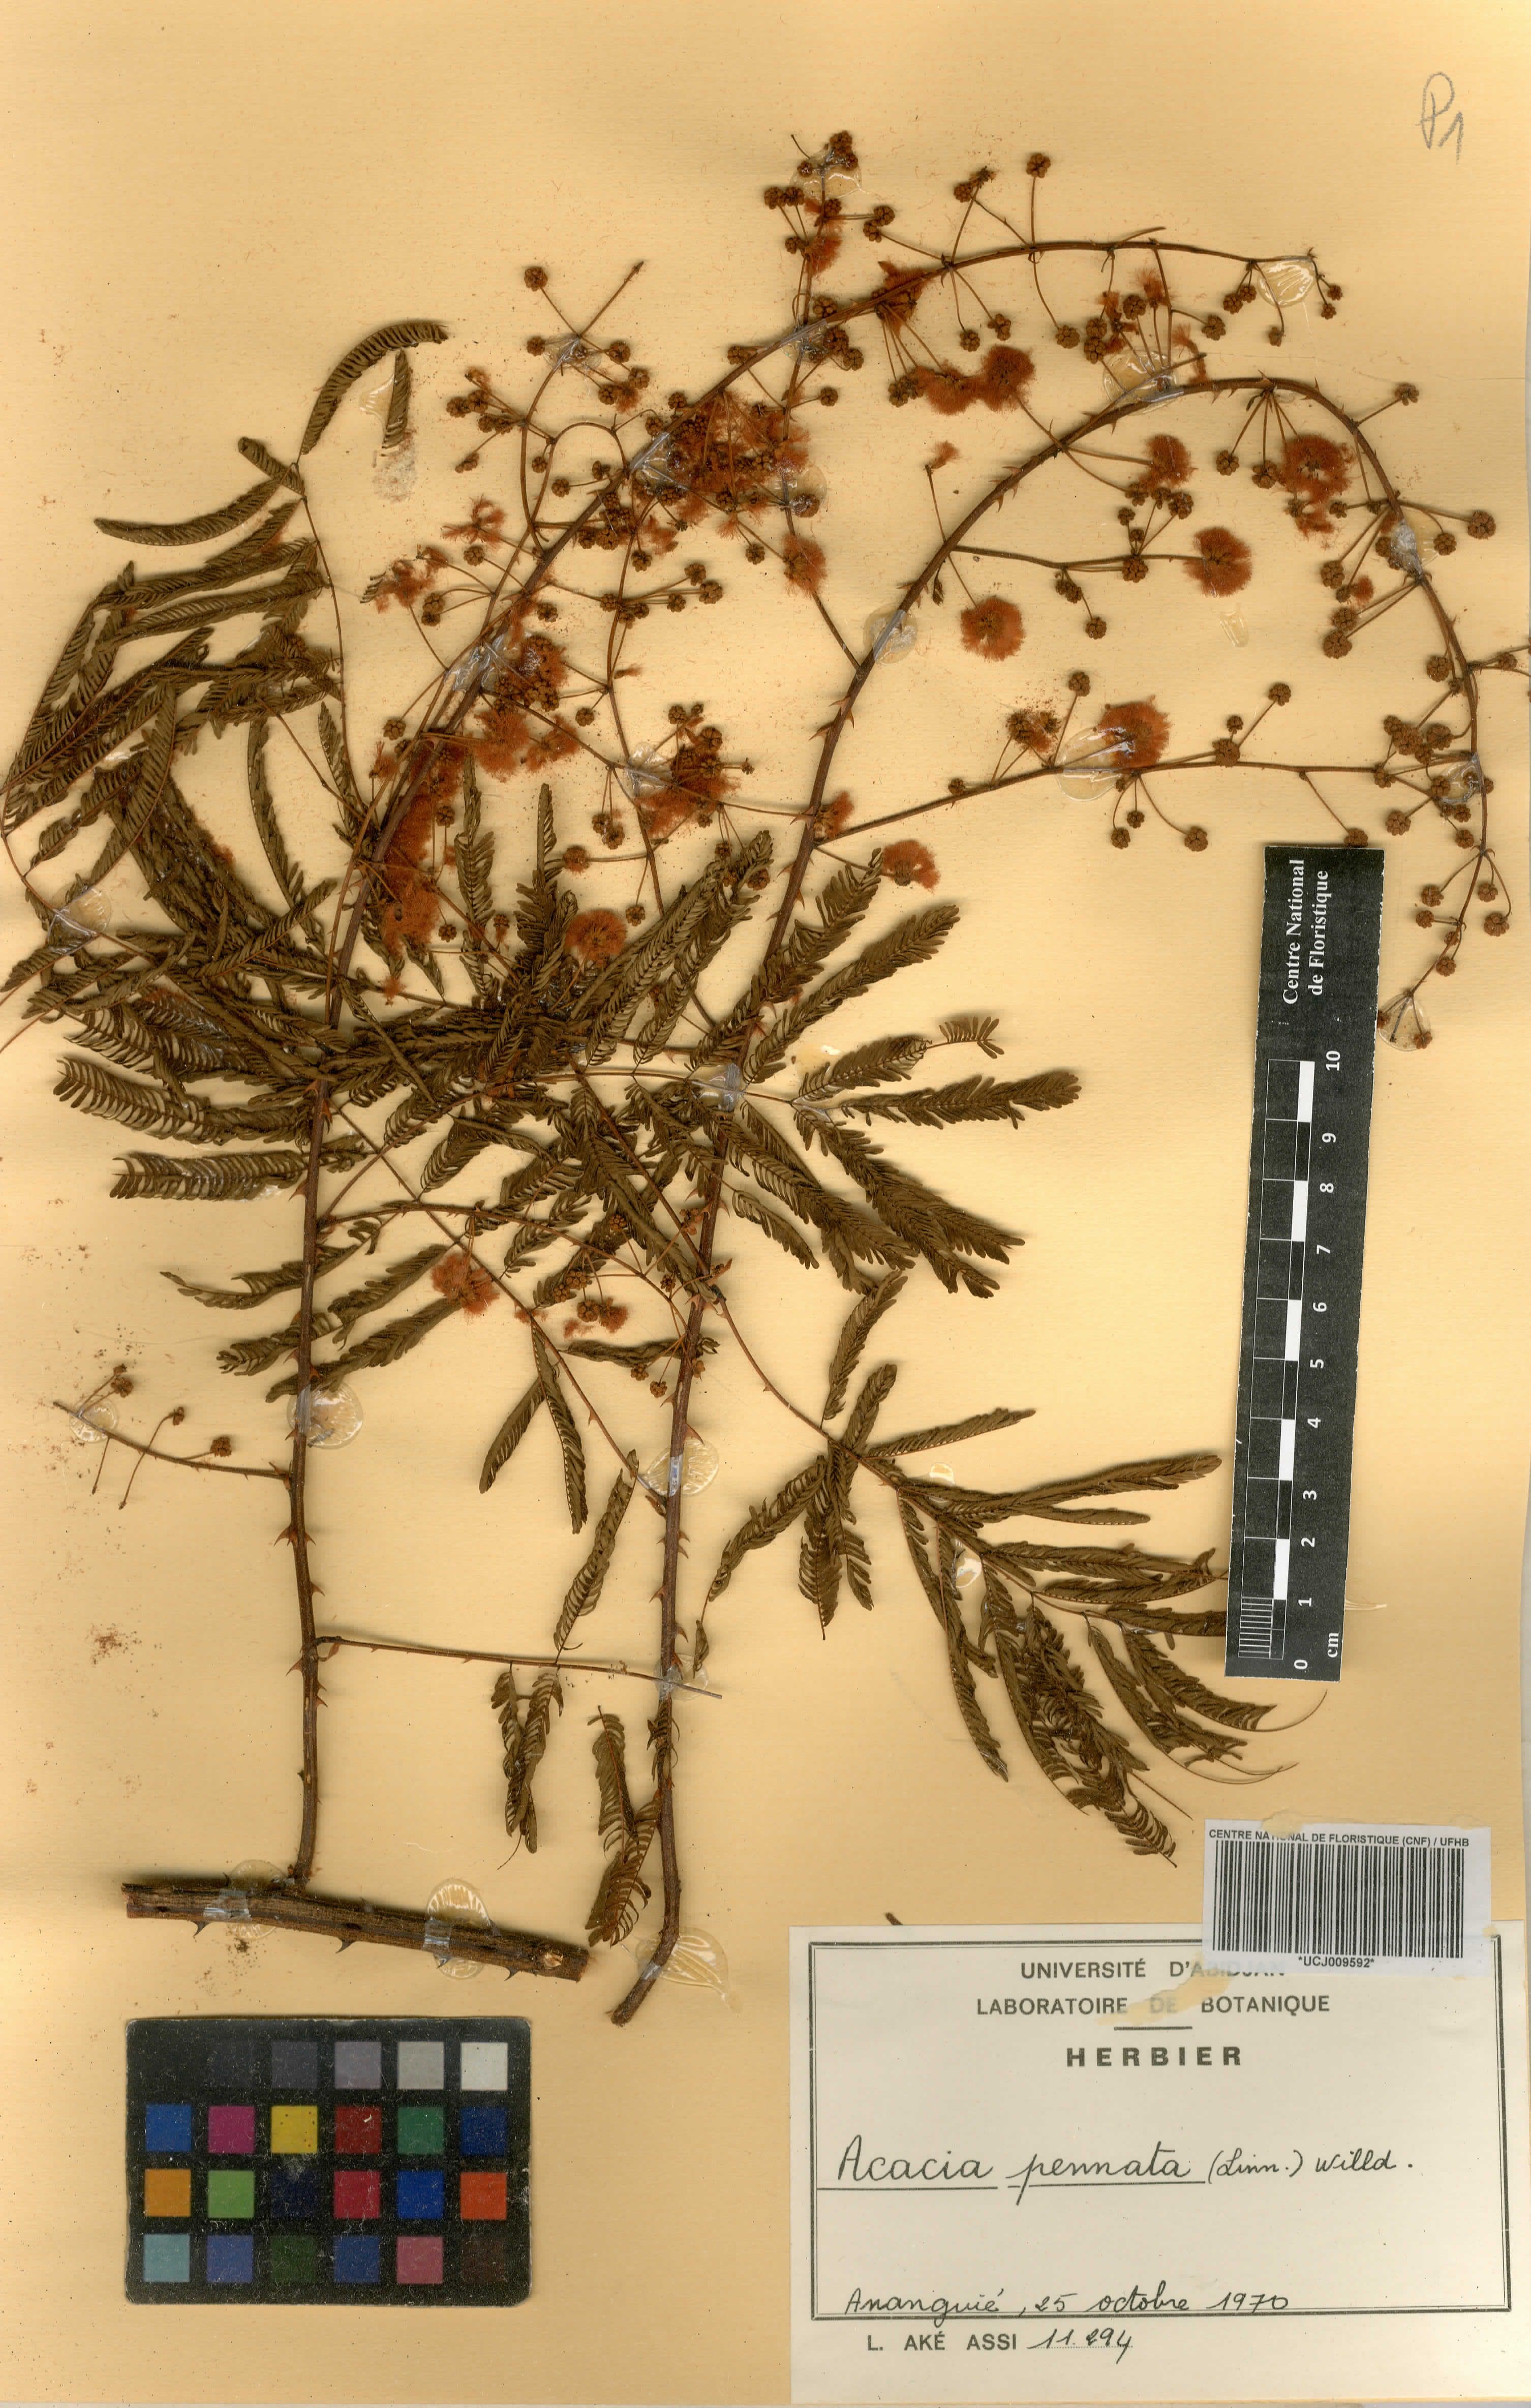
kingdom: Plantae
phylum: Tracheophyta
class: Magnoliopsida
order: Fabales
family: Fabaceae
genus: Senegalia
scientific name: Senegalia pennata
